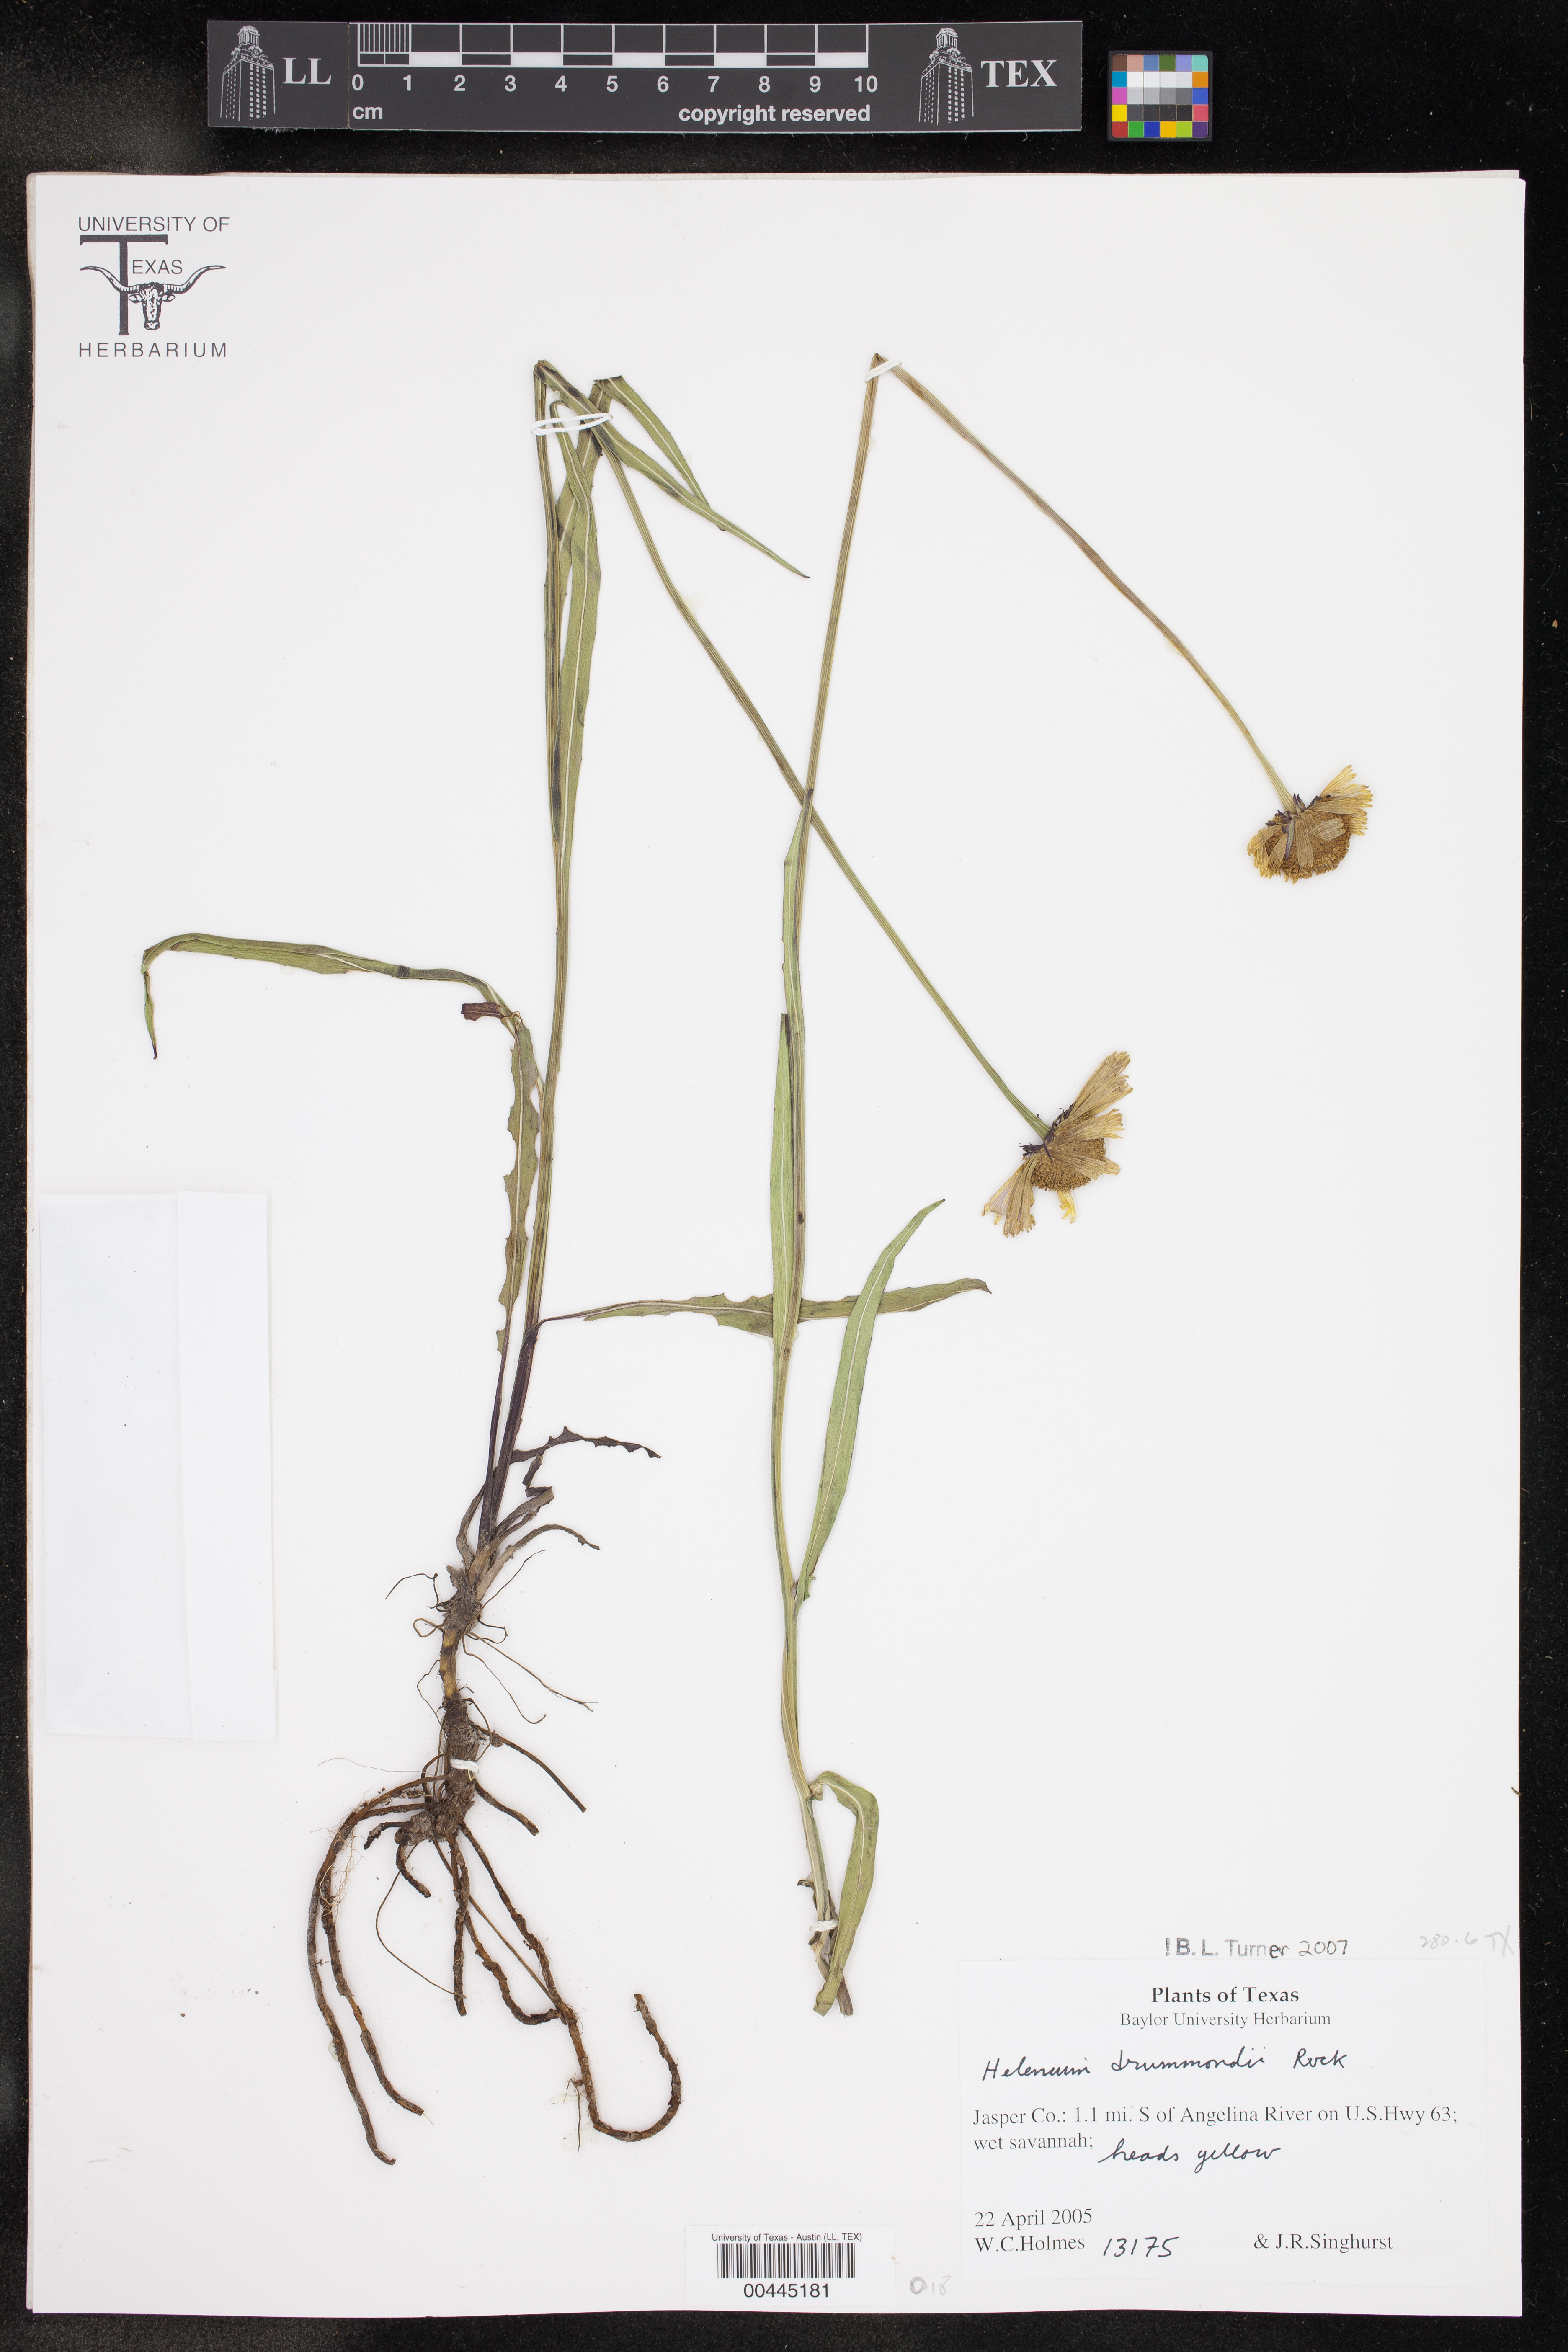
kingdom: Plantae
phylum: Tracheophyta
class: Magnoliopsida
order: Asterales
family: Asteraceae
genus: Helenium
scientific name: Helenium drummondii
